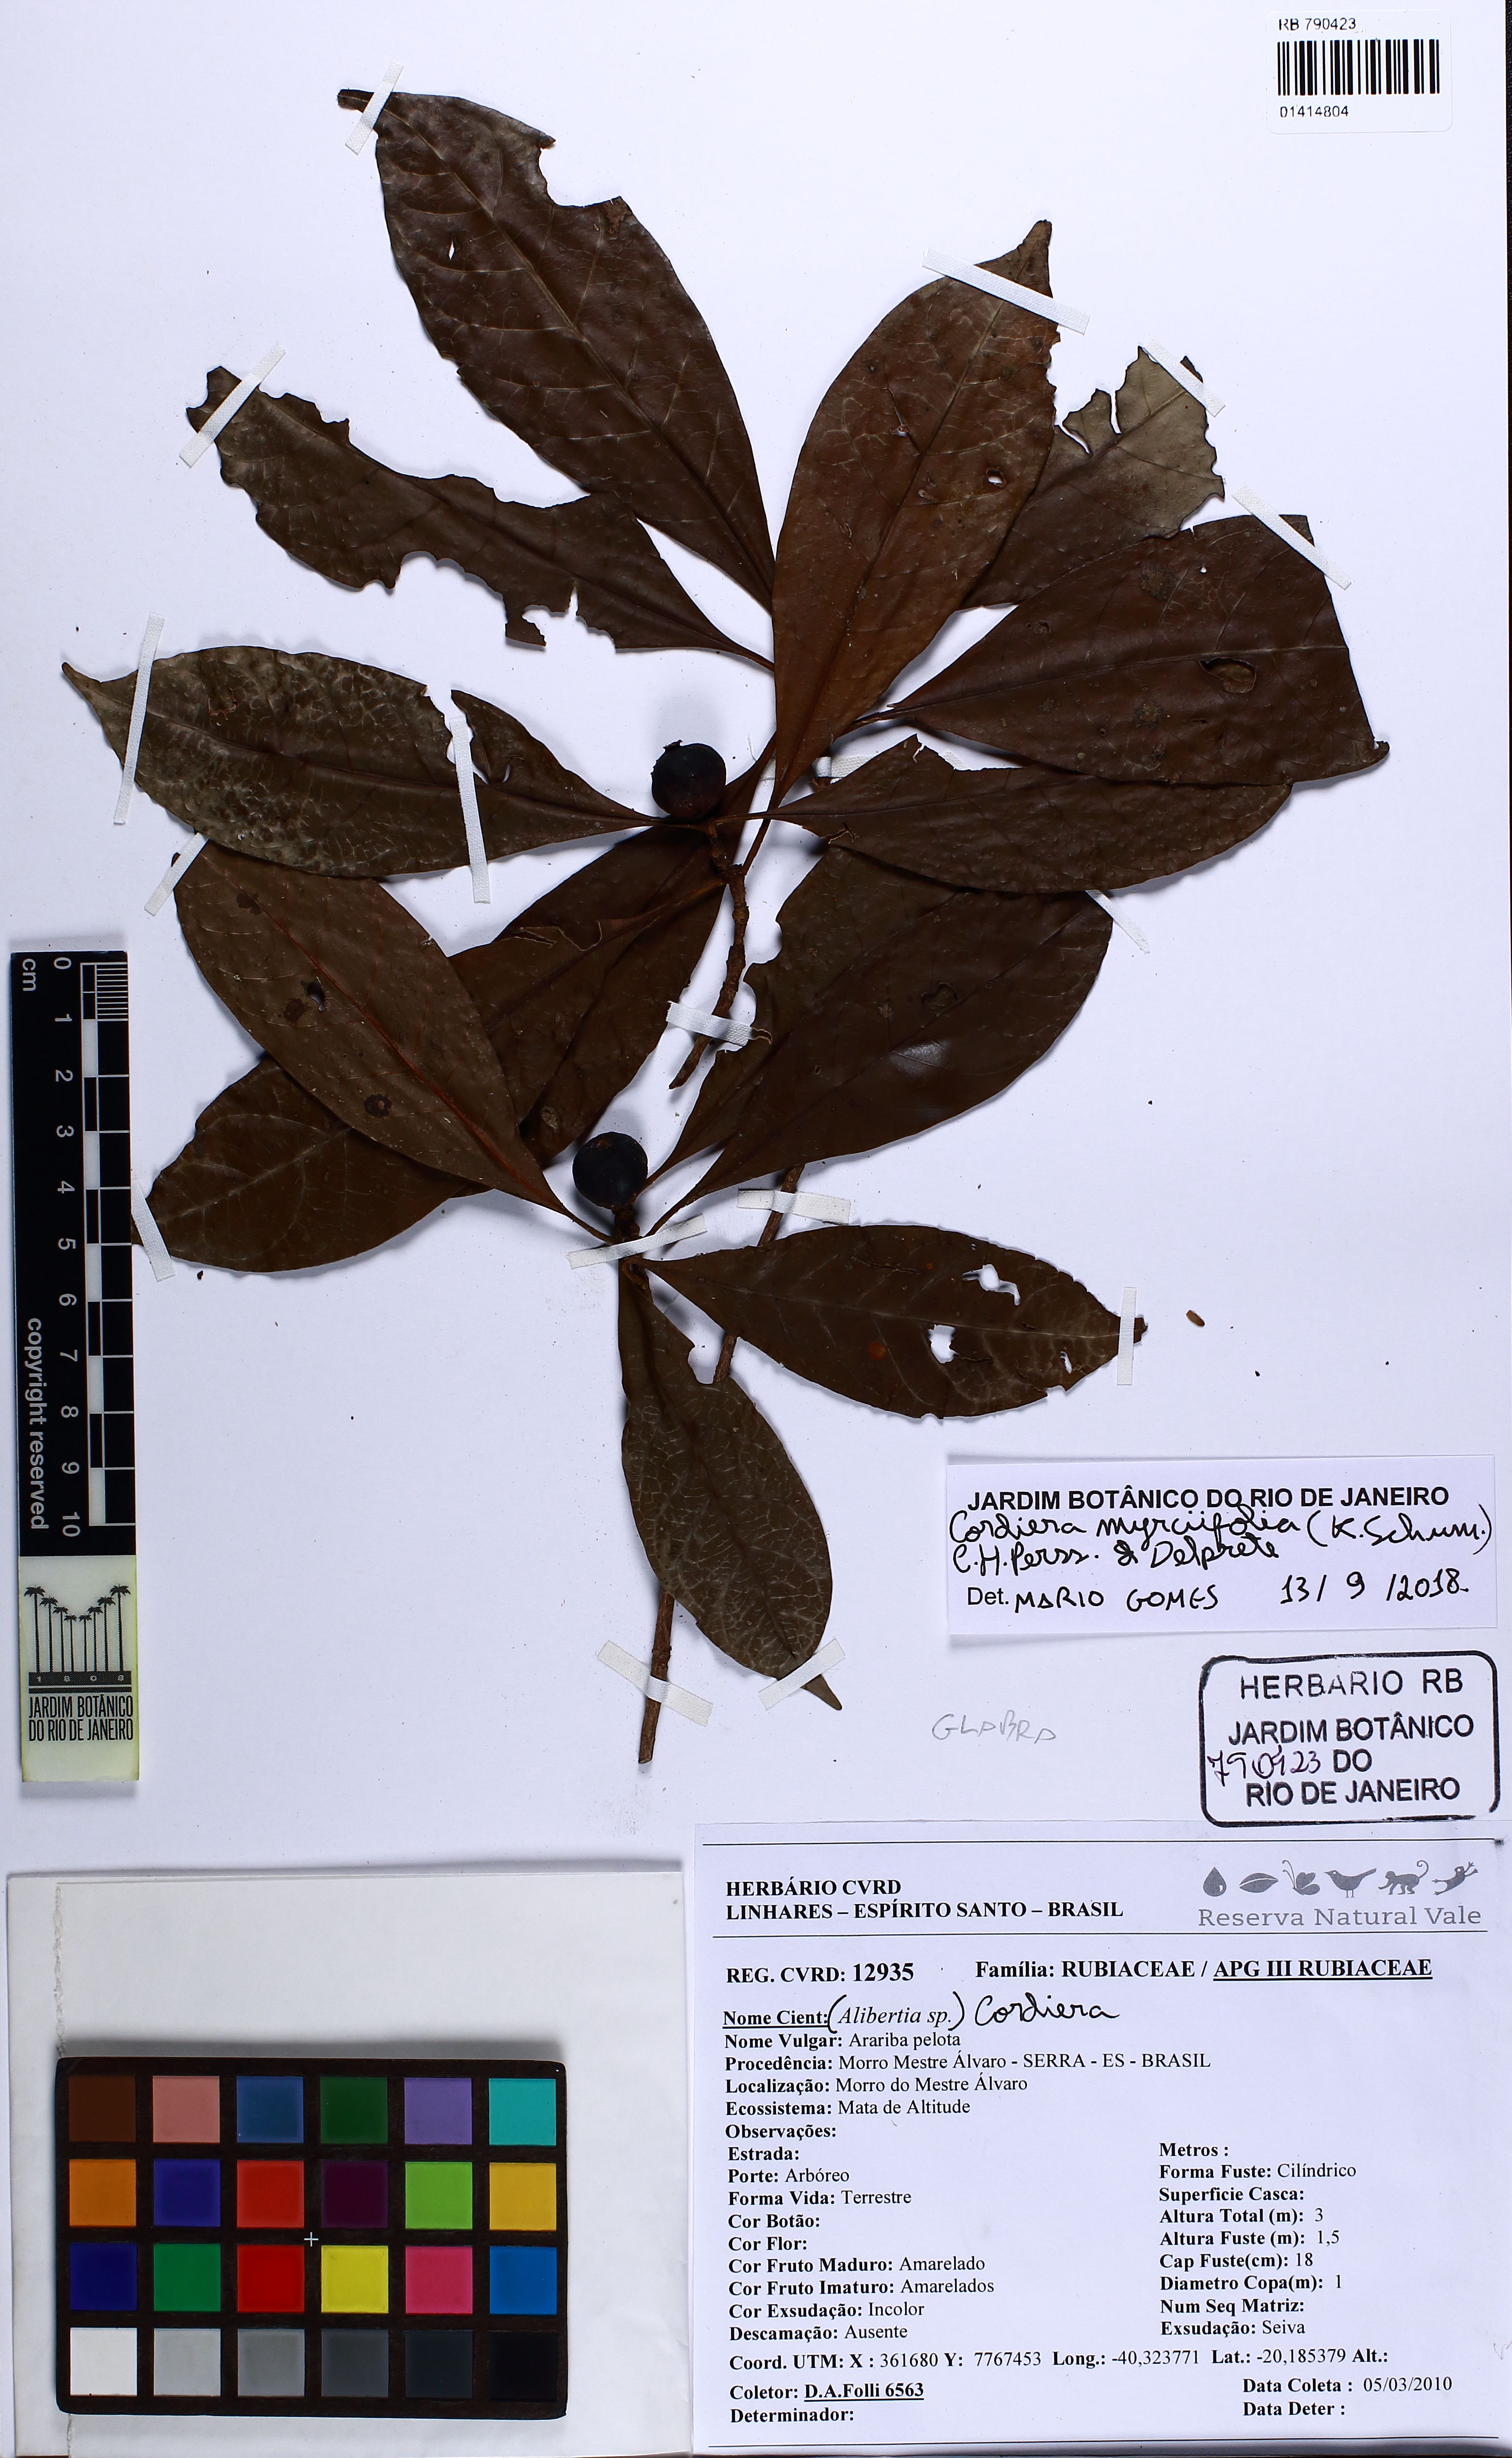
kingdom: Plantae
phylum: Tracheophyta
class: Magnoliopsida
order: Gentianales
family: Rubiaceae
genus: Cordiera
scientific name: Cordiera myrciifolia
